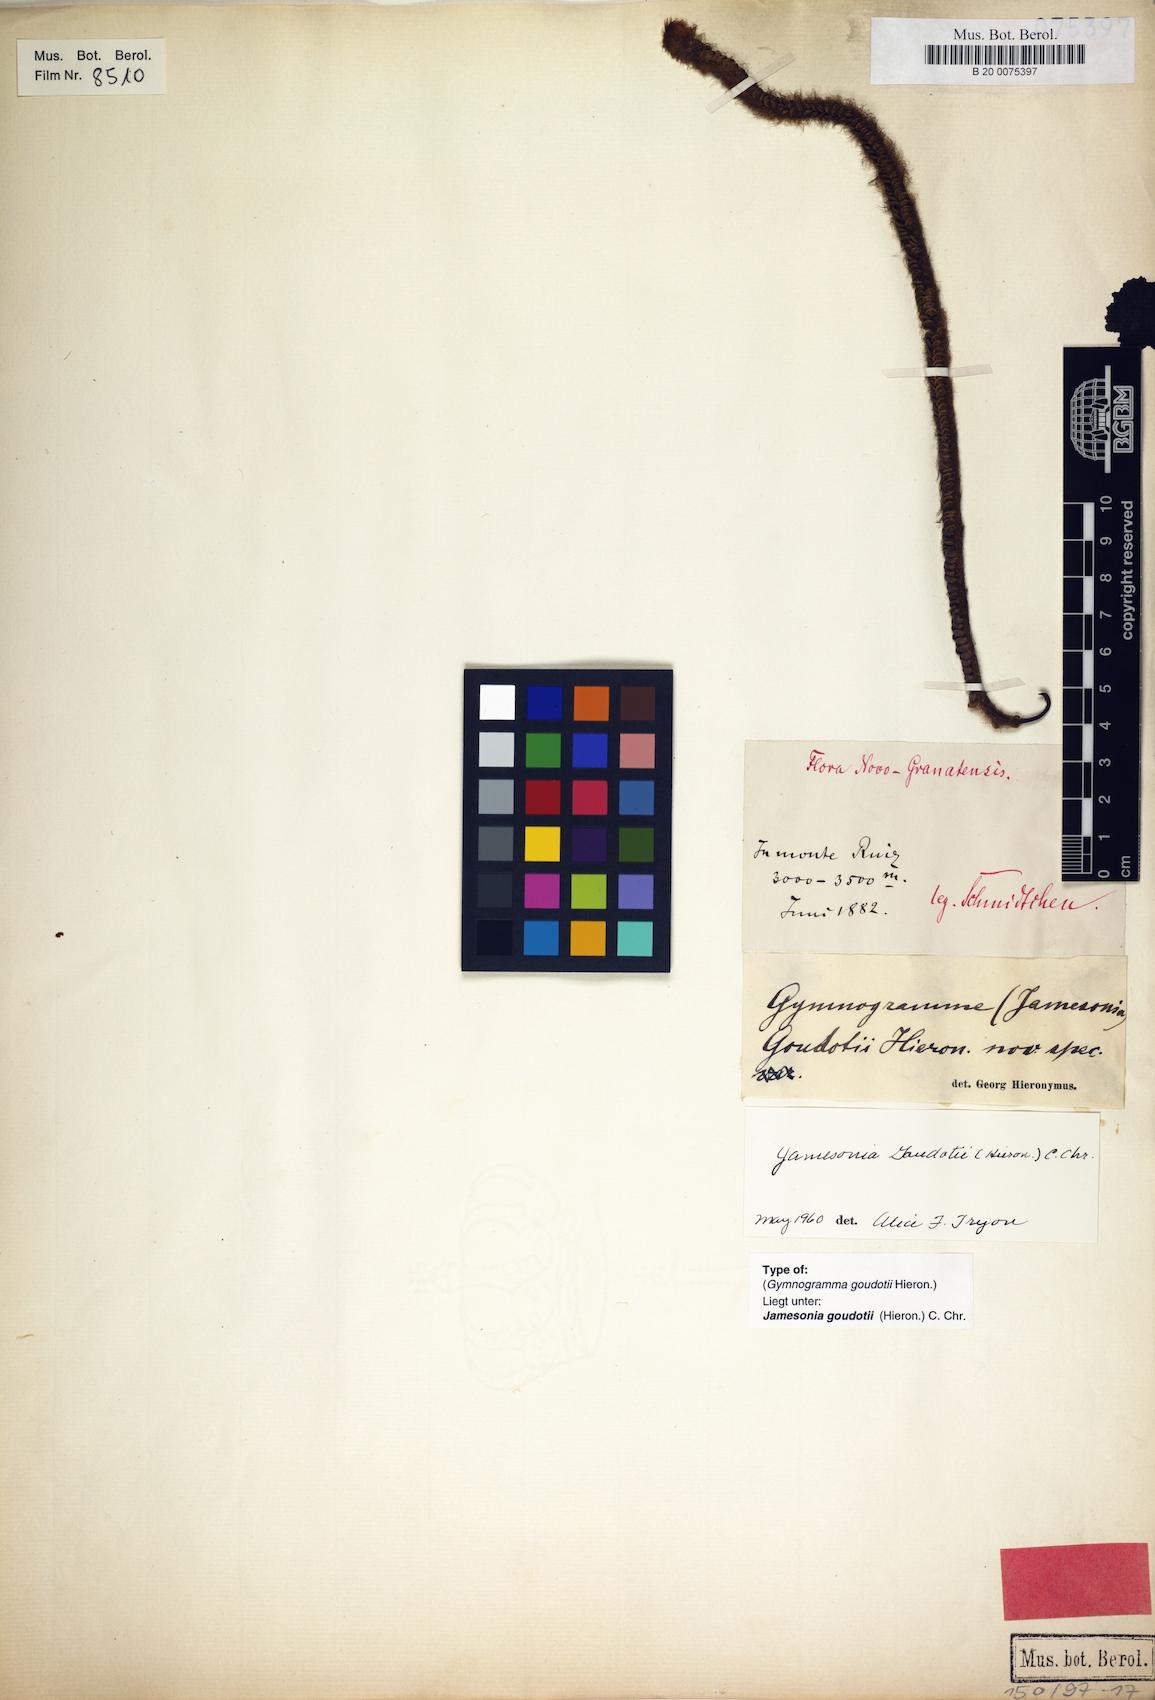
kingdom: Plantae
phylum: Tracheophyta
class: Polypodiopsida
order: Polypodiales
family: Pteridaceae
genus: Jamesonia
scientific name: Jamesonia goudotii
